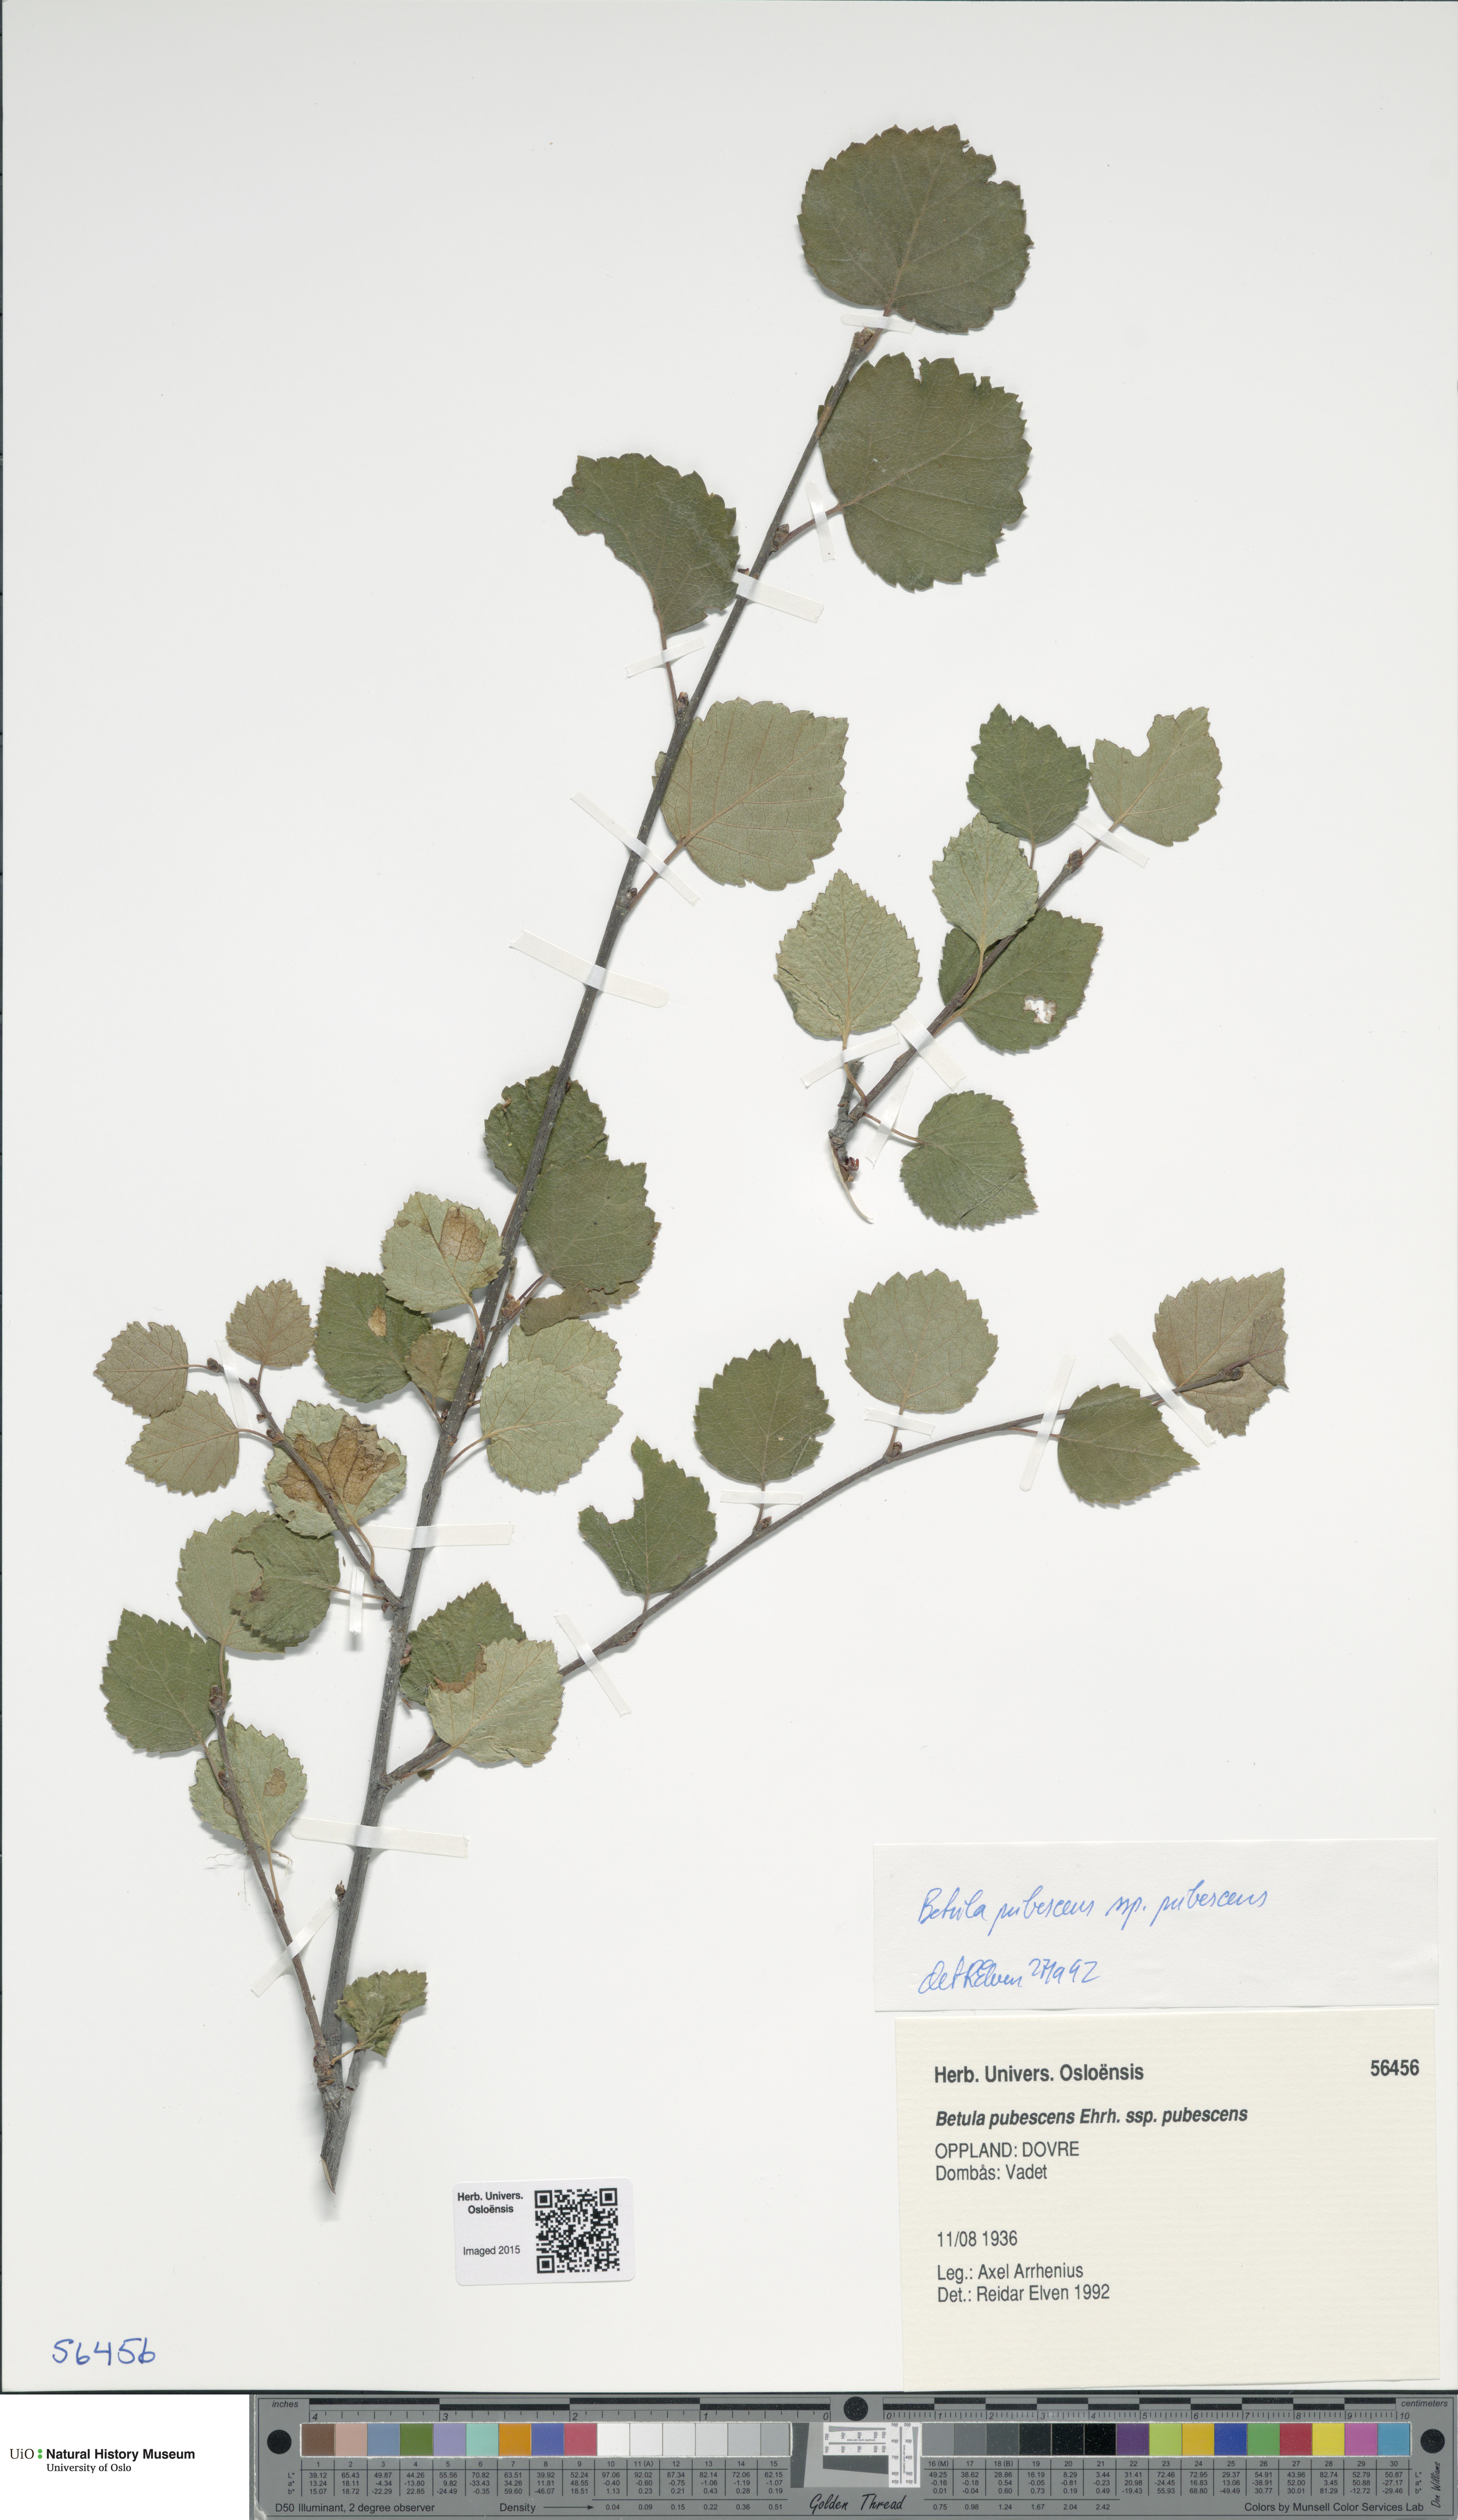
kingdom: Plantae
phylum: Tracheophyta
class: Magnoliopsida
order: Fagales
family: Betulaceae
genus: Betula
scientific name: Betula pubescens
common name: Downy birch
